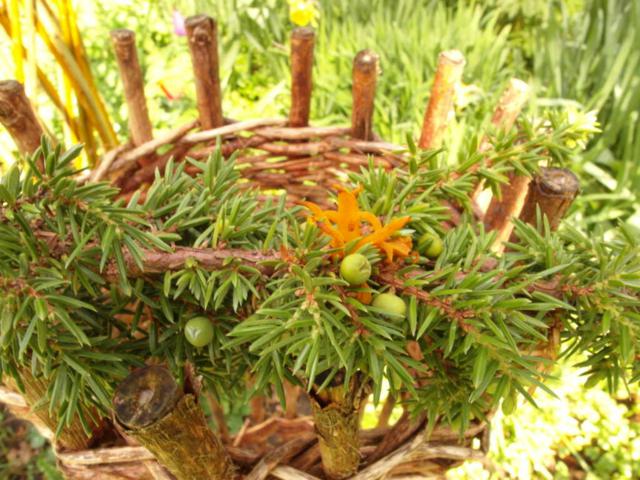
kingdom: Fungi
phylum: Basidiomycota
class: Pucciniomycetes
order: Pucciniales
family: Gymnosporangiaceae
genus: Gymnosporangium
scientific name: Gymnosporangium clavariiforme
